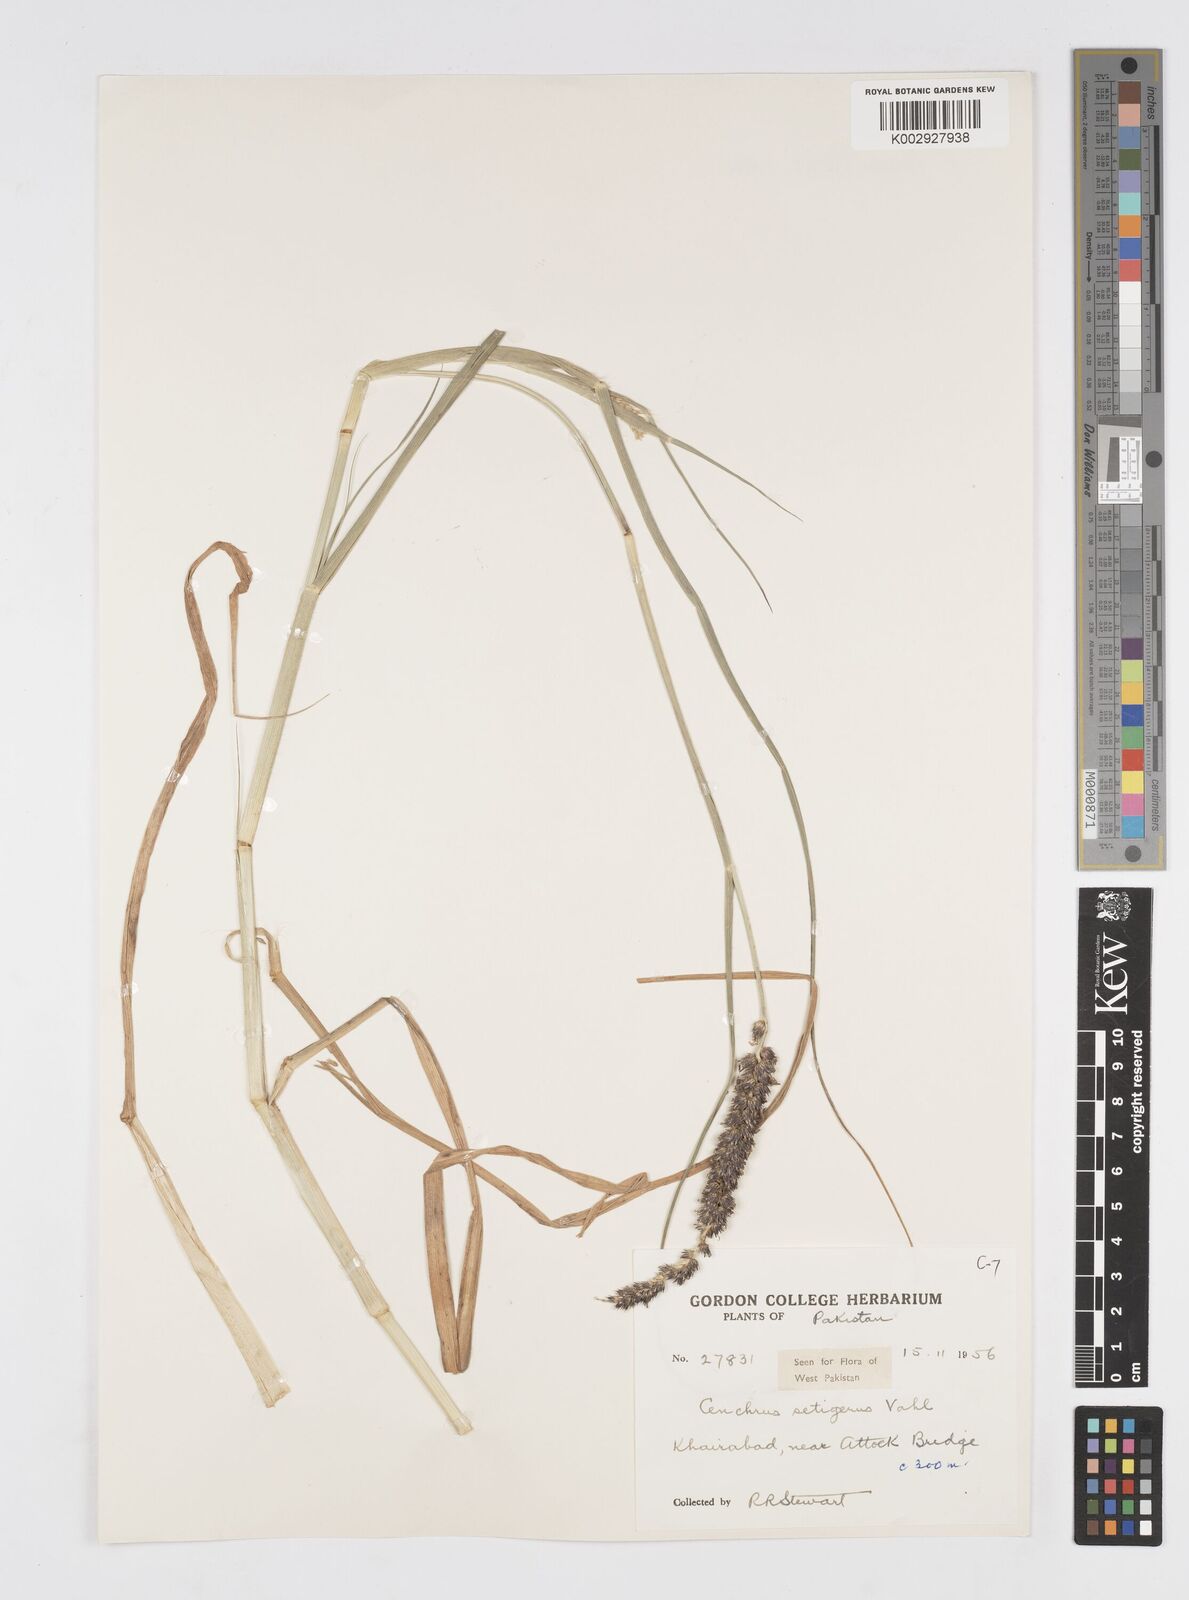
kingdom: Plantae
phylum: Tracheophyta
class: Liliopsida
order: Poales
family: Poaceae
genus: Cenchrus
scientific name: Cenchrus setigerus
